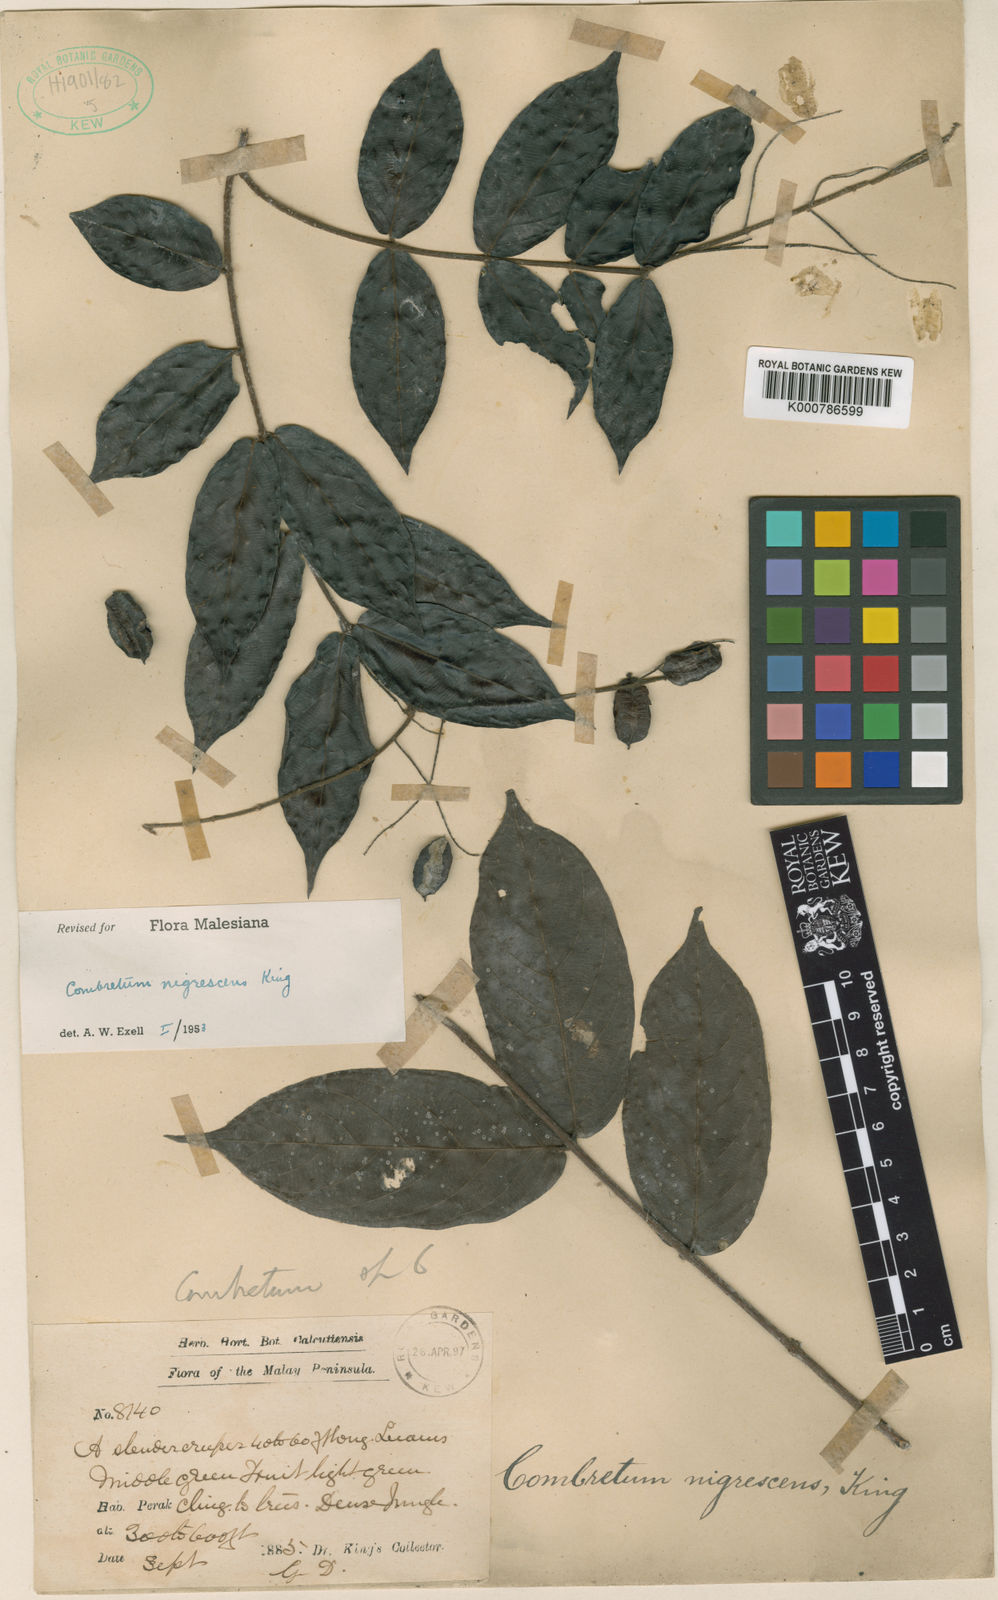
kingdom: Plantae
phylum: Tracheophyta
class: Magnoliopsida
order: Myrtales
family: Combretaceae
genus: Combretum
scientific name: Combretum nigrescens
